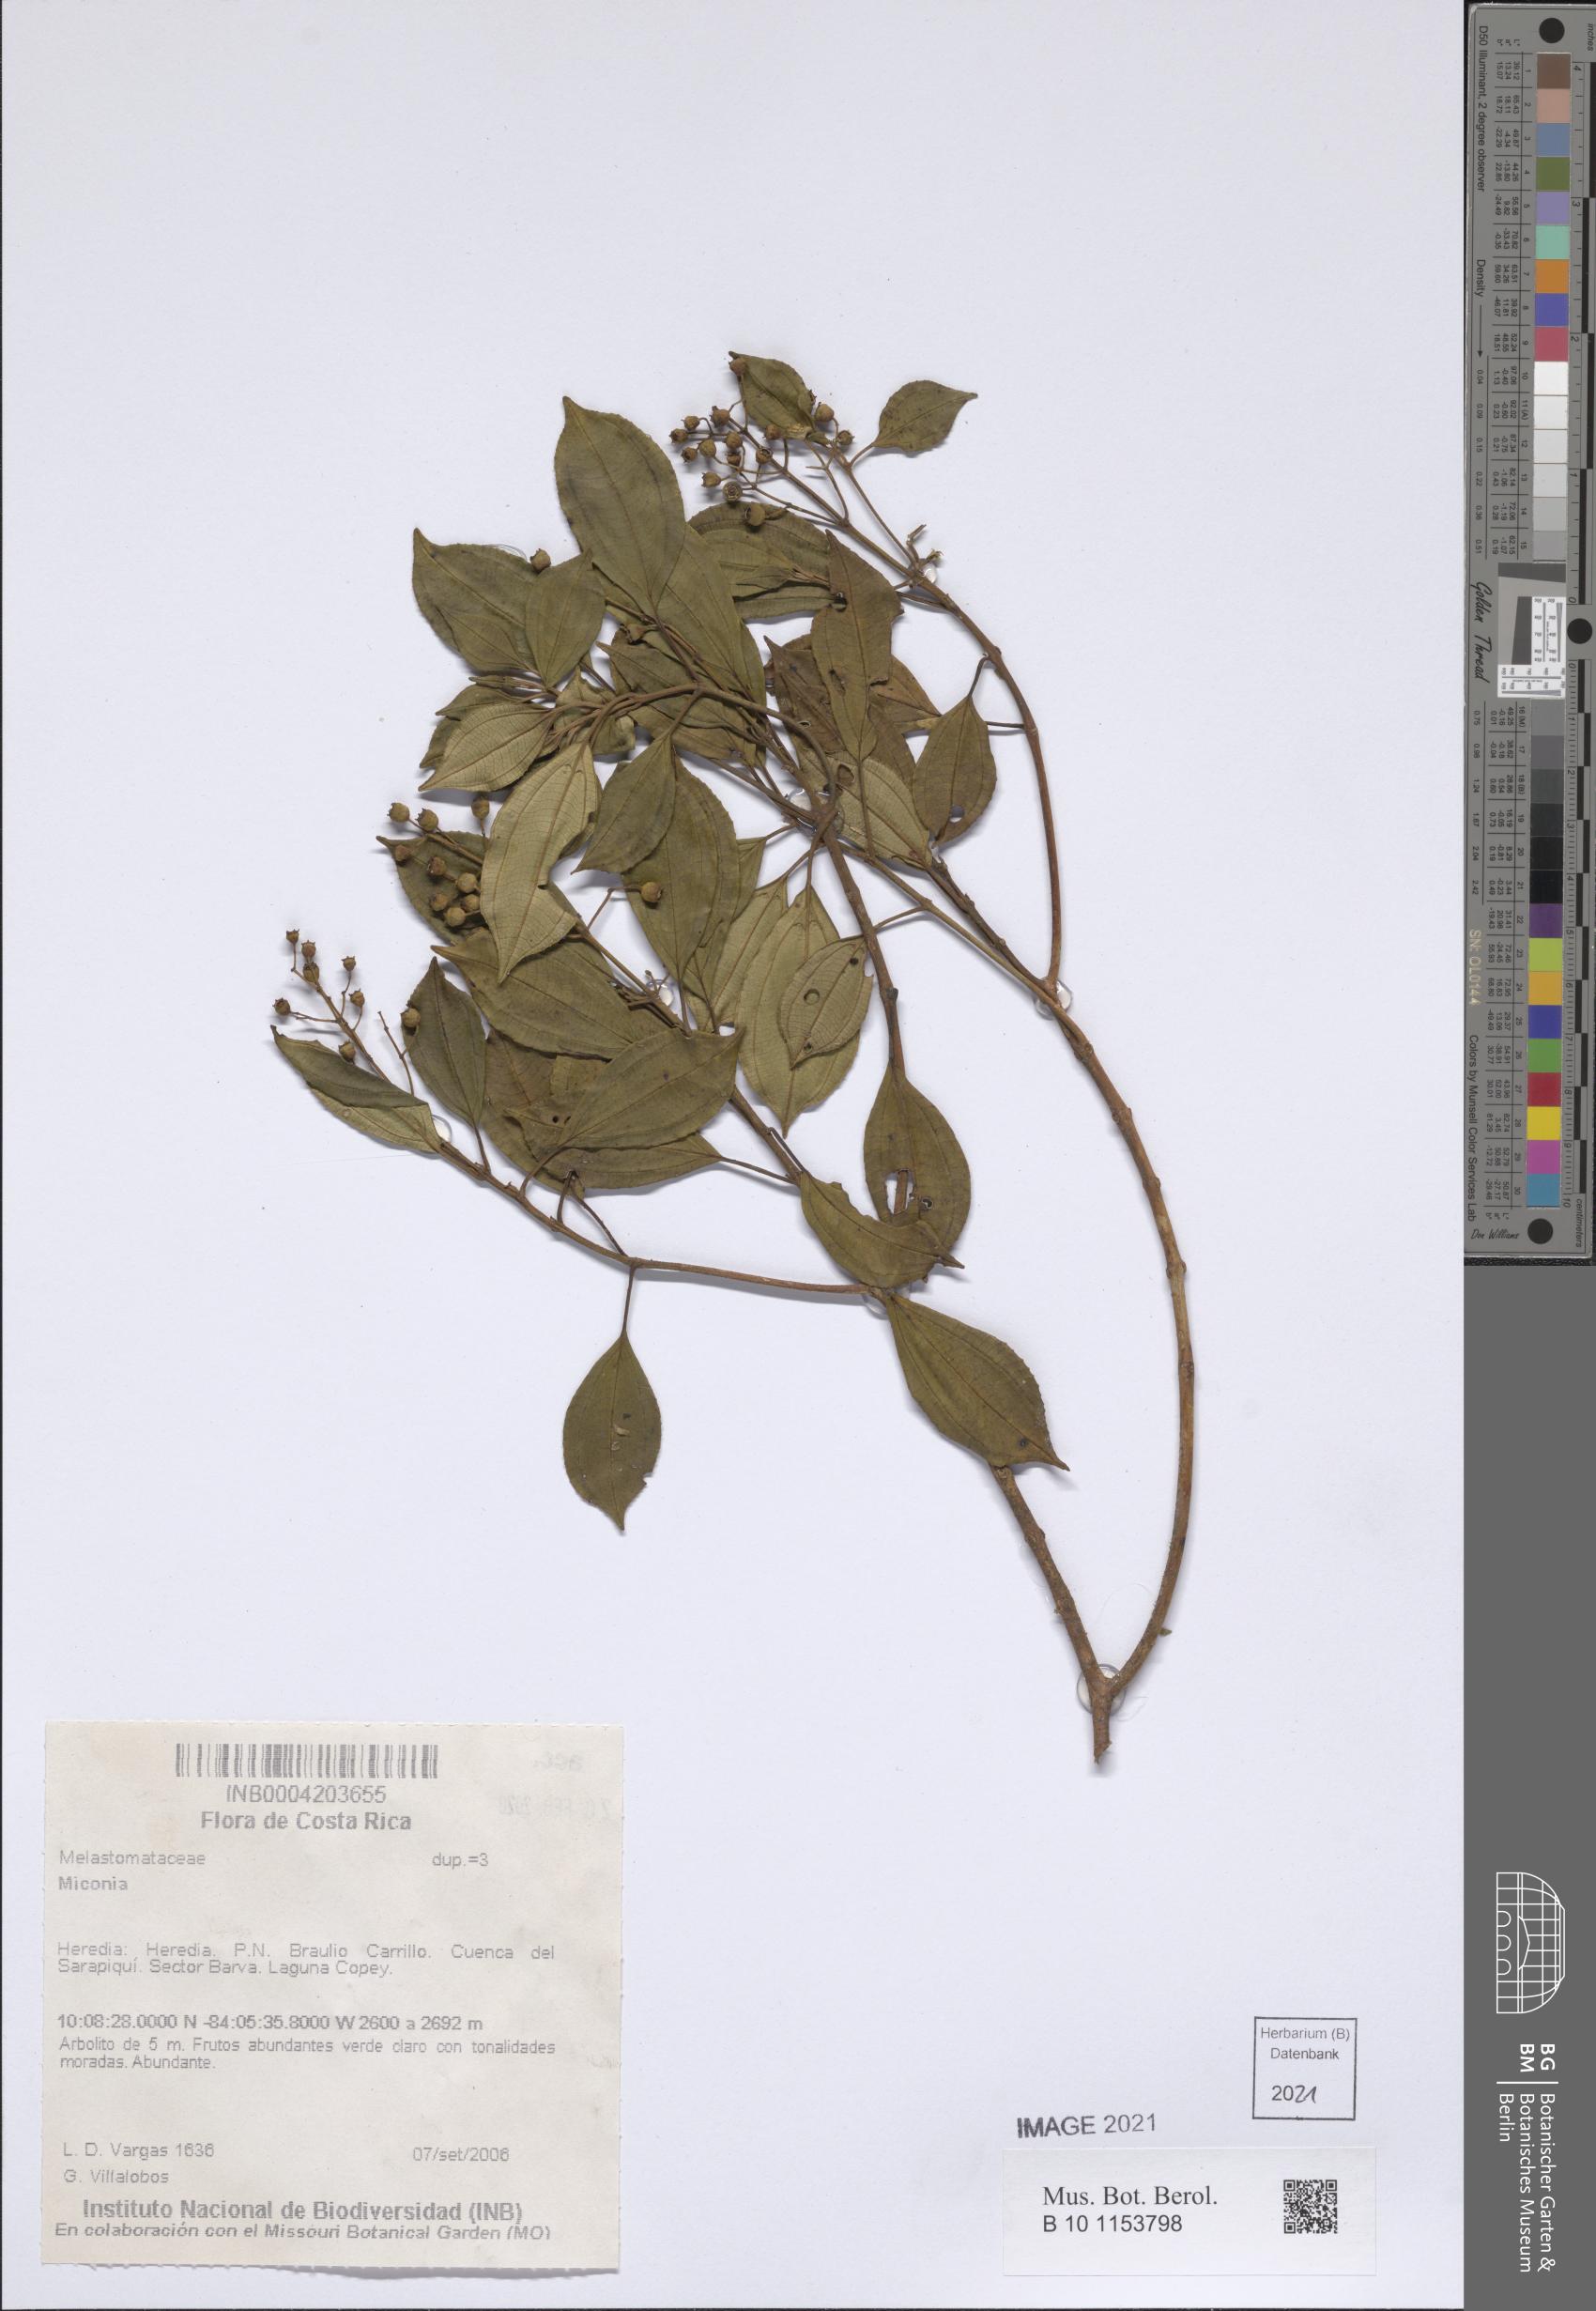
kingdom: Plantae
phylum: Tracheophyta
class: Magnoliopsida
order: Myrtales
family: Melastomataceae
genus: Miconia
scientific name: Miconia
